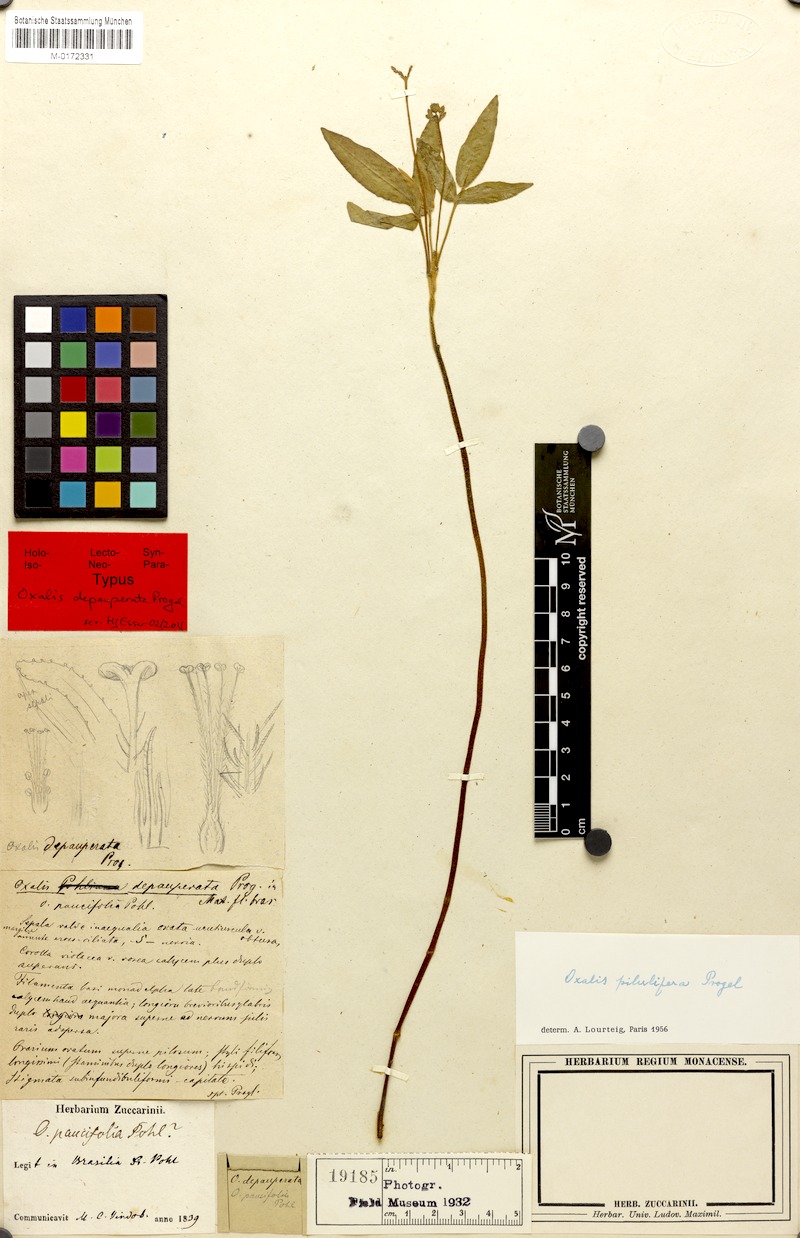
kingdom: Plantae
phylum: Tracheophyta
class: Magnoliopsida
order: Oxalidales
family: Oxalidaceae
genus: Oxalis
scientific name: Oxalis pilulifera
